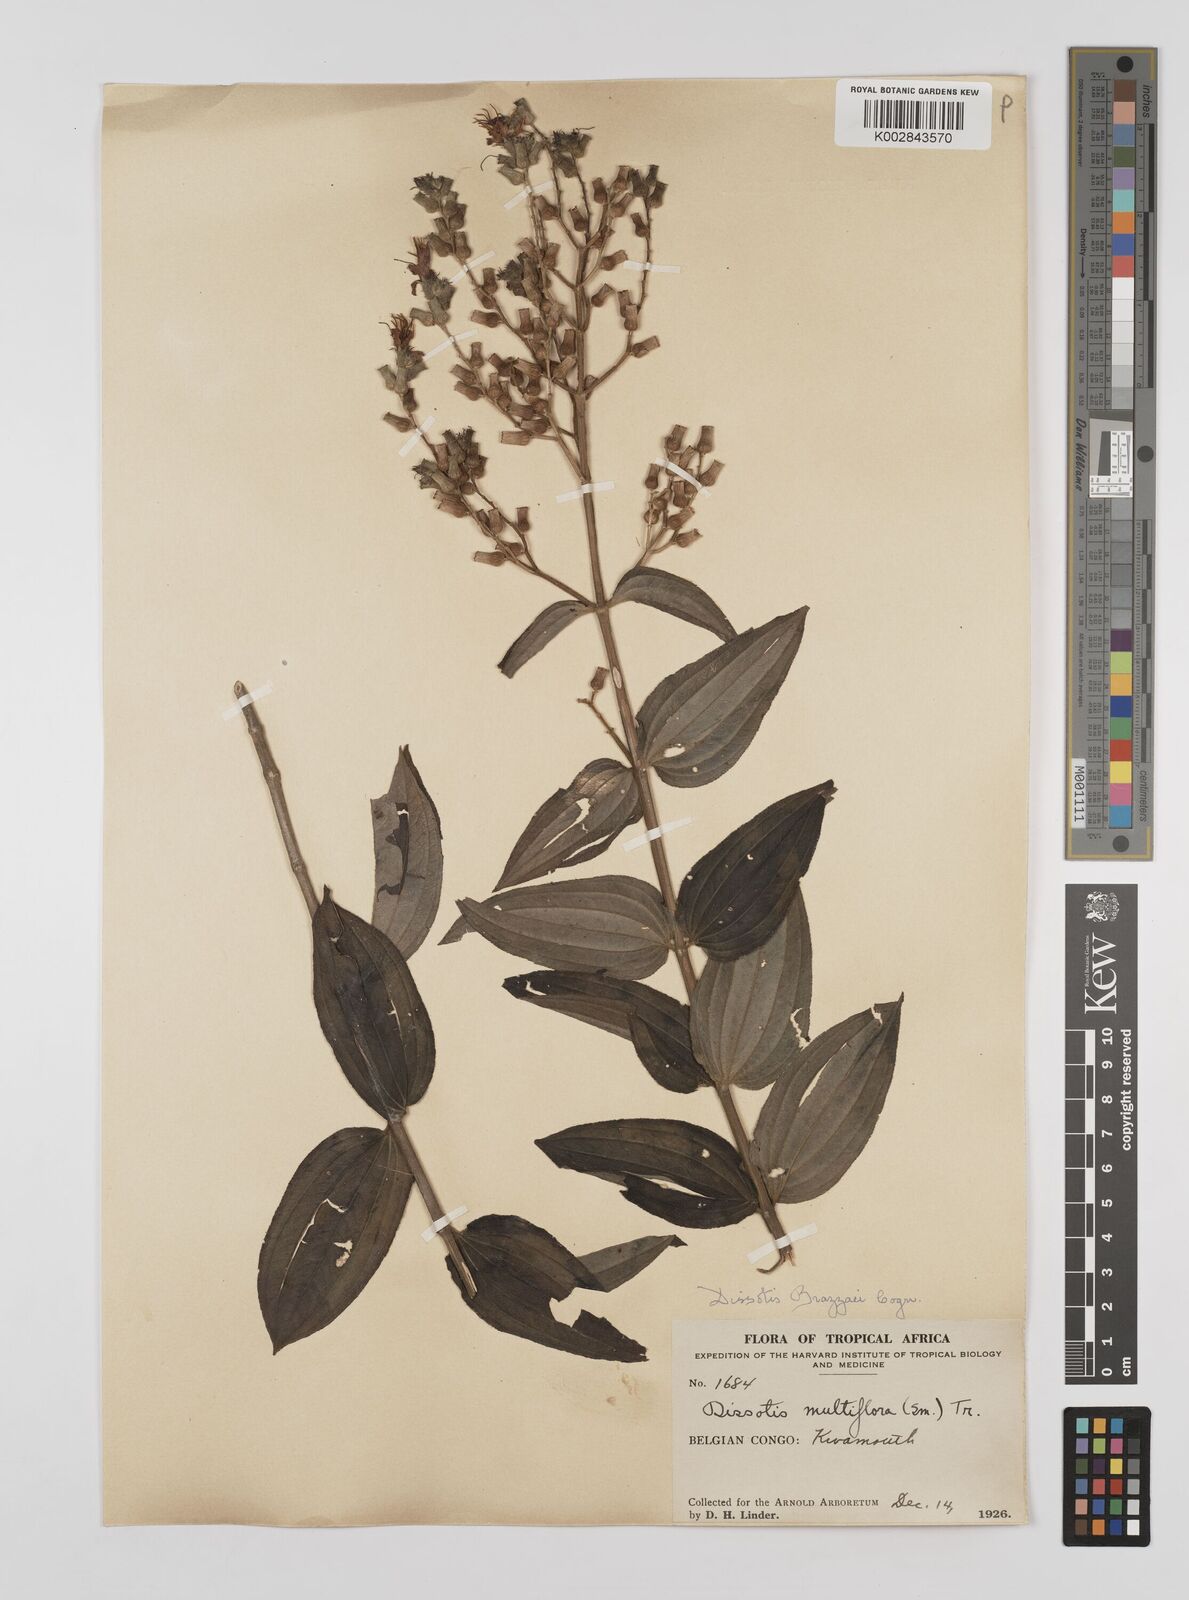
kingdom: Plantae
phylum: Tracheophyta
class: Magnoliopsida
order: Myrtales
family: Melastomataceae
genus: Dupineta
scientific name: Dupineta brazzae
